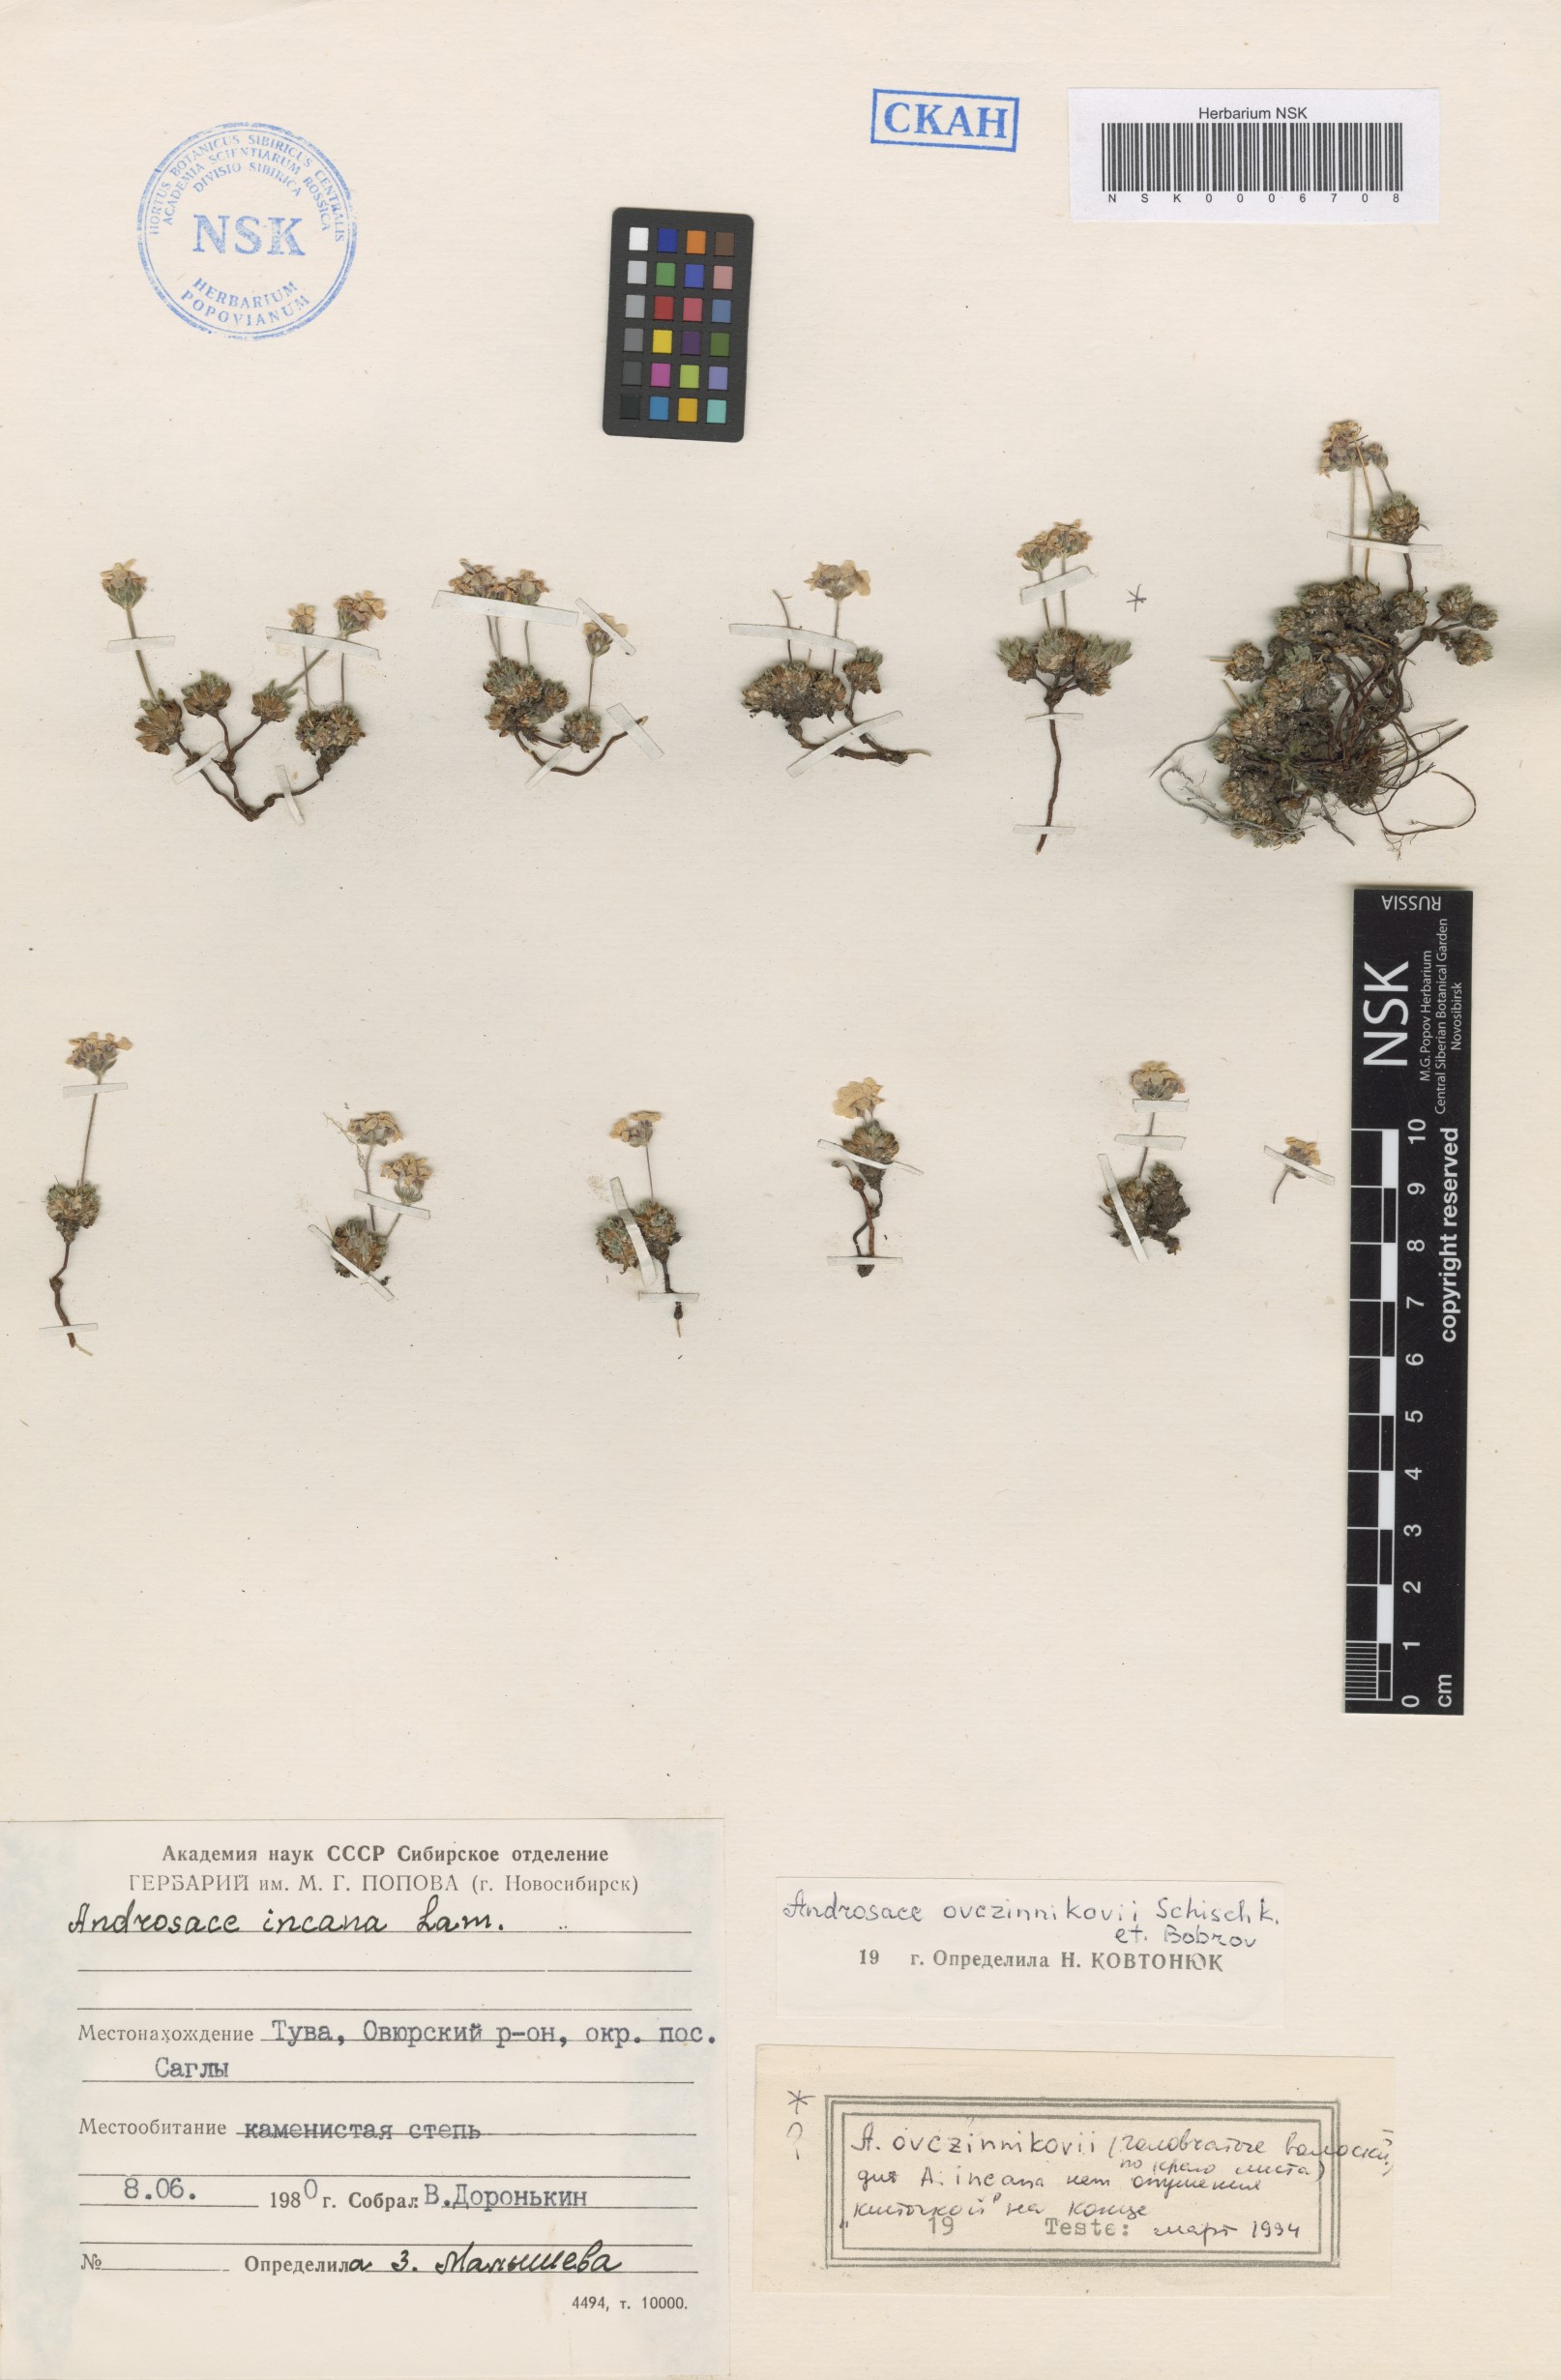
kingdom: Plantae
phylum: Tracheophyta
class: Magnoliopsida
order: Ericales
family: Primulaceae
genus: Androsace
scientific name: Androsace ovczinnikovii
